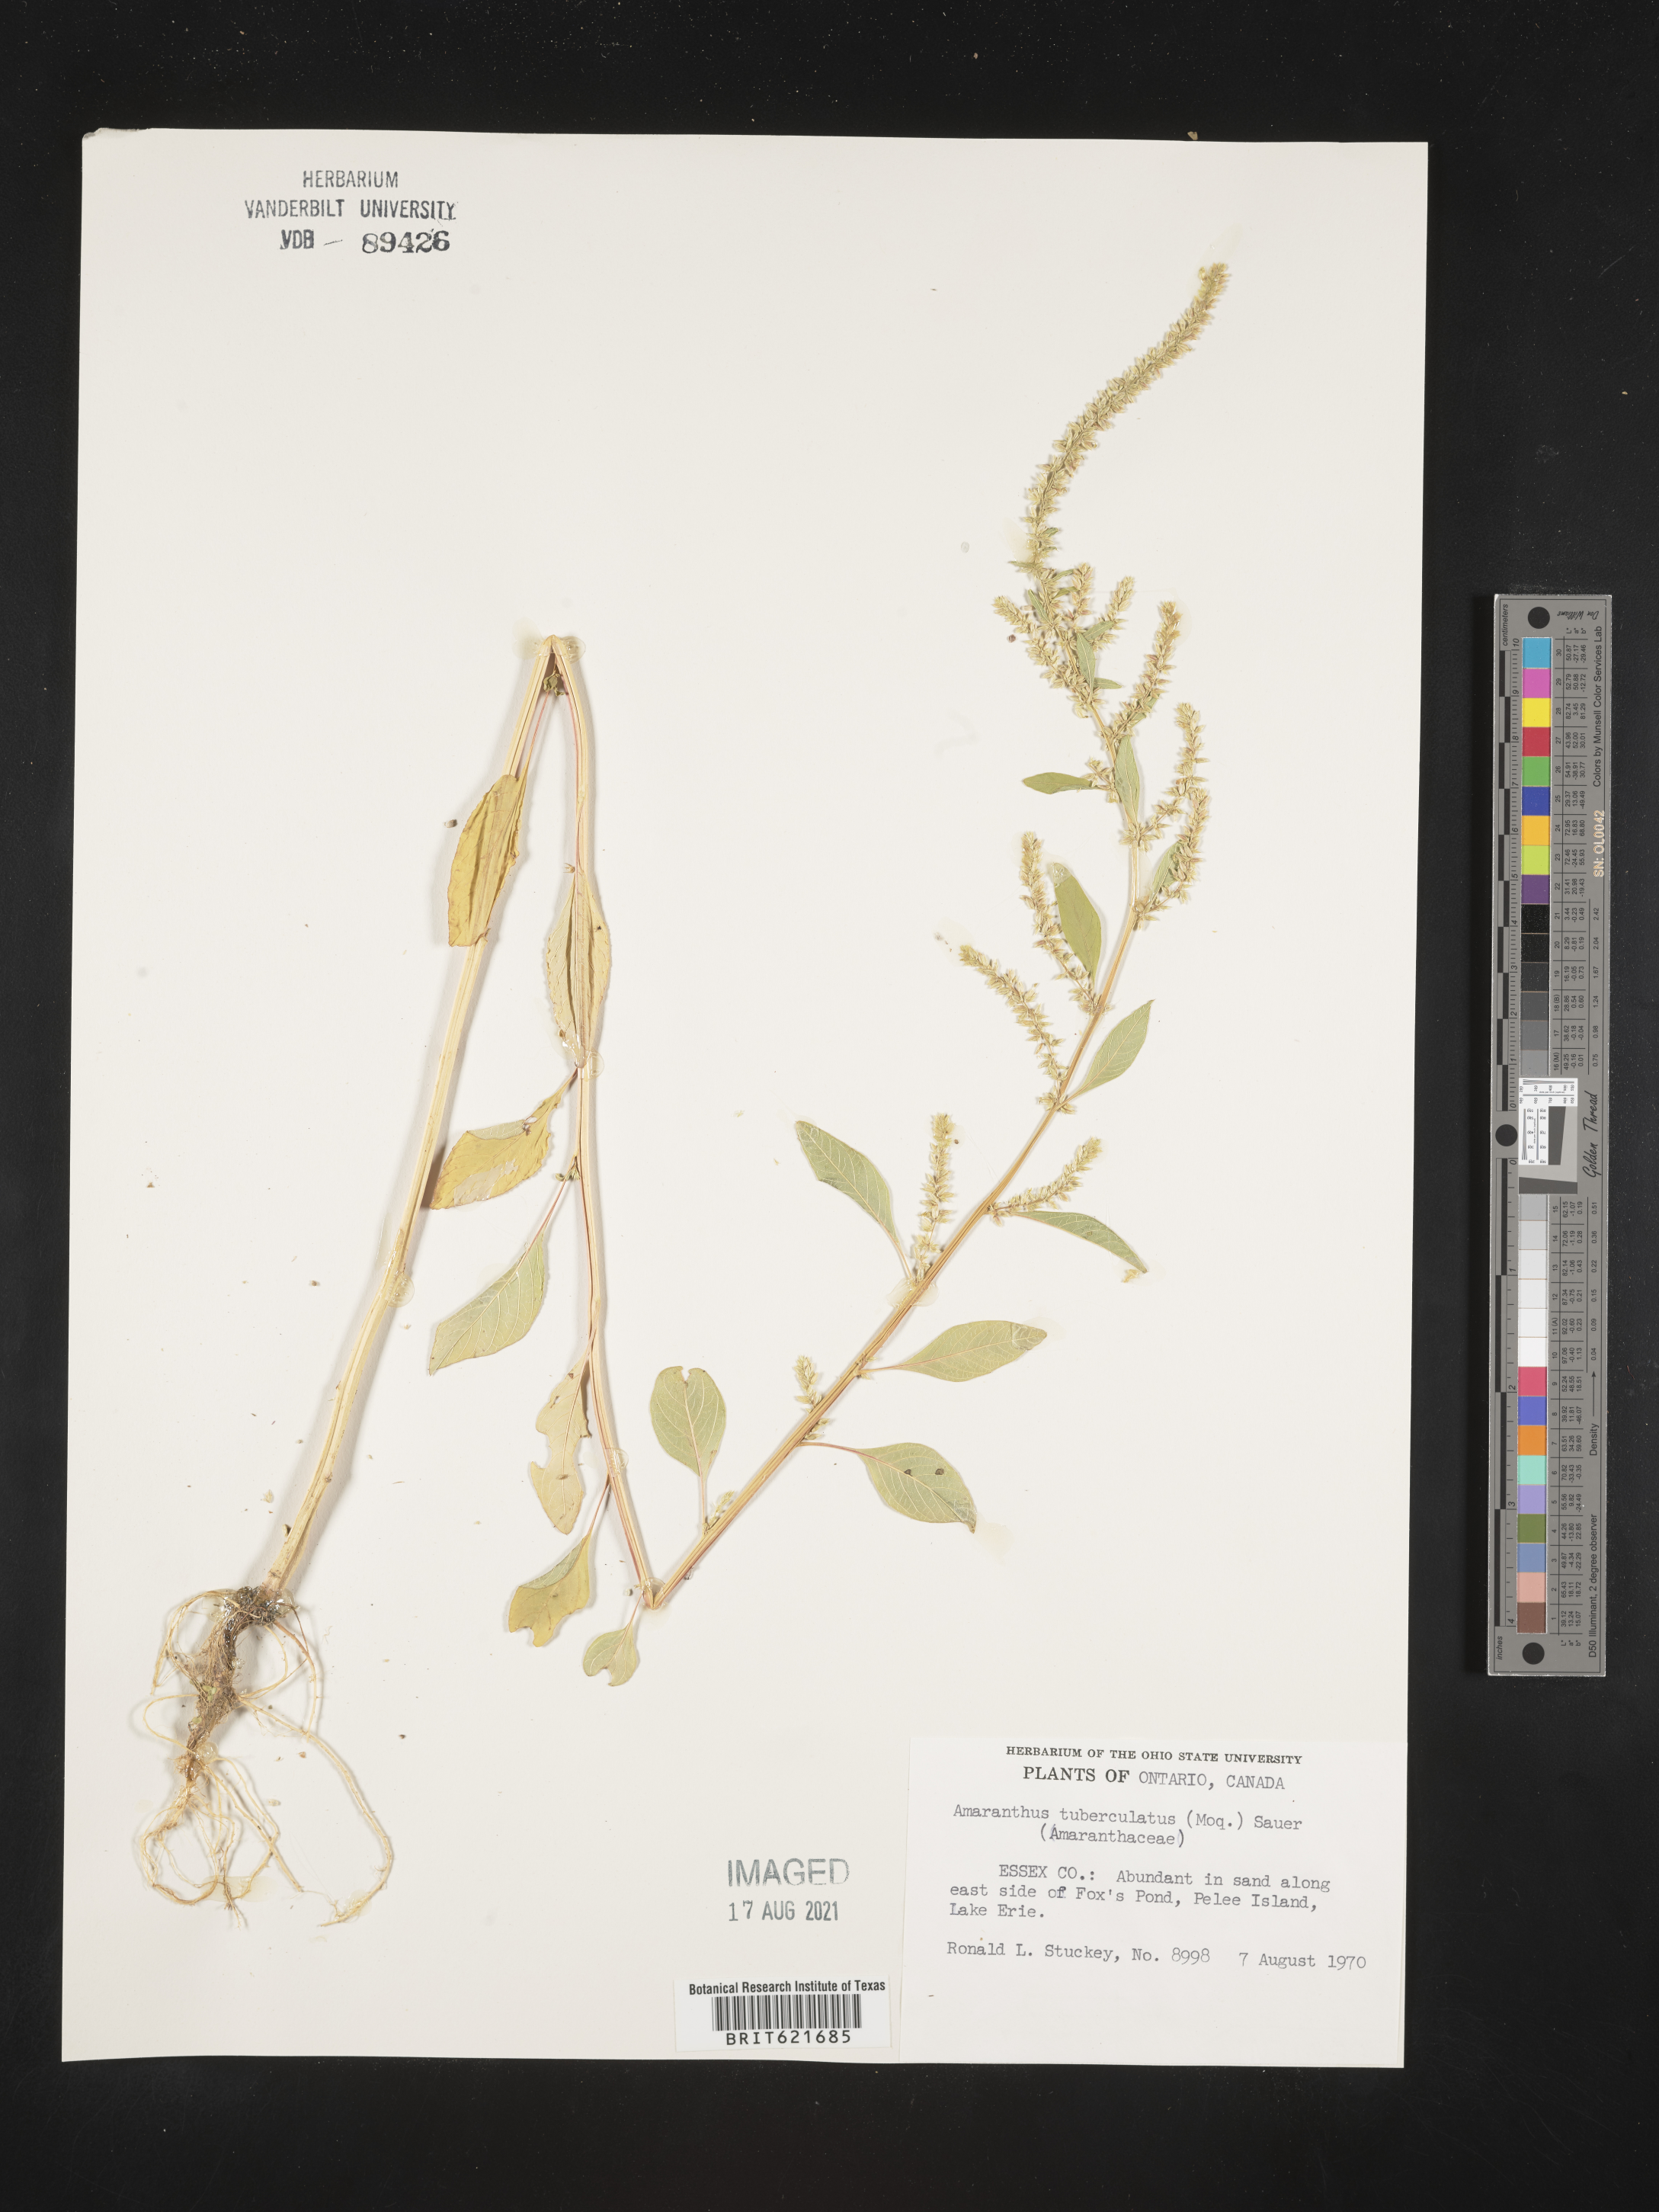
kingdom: Plantae
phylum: Tracheophyta
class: Magnoliopsida
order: Caryophyllales
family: Amaranthaceae
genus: Amaranthus
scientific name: Amaranthus tuberculatus
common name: Rough-fruit amaranth
